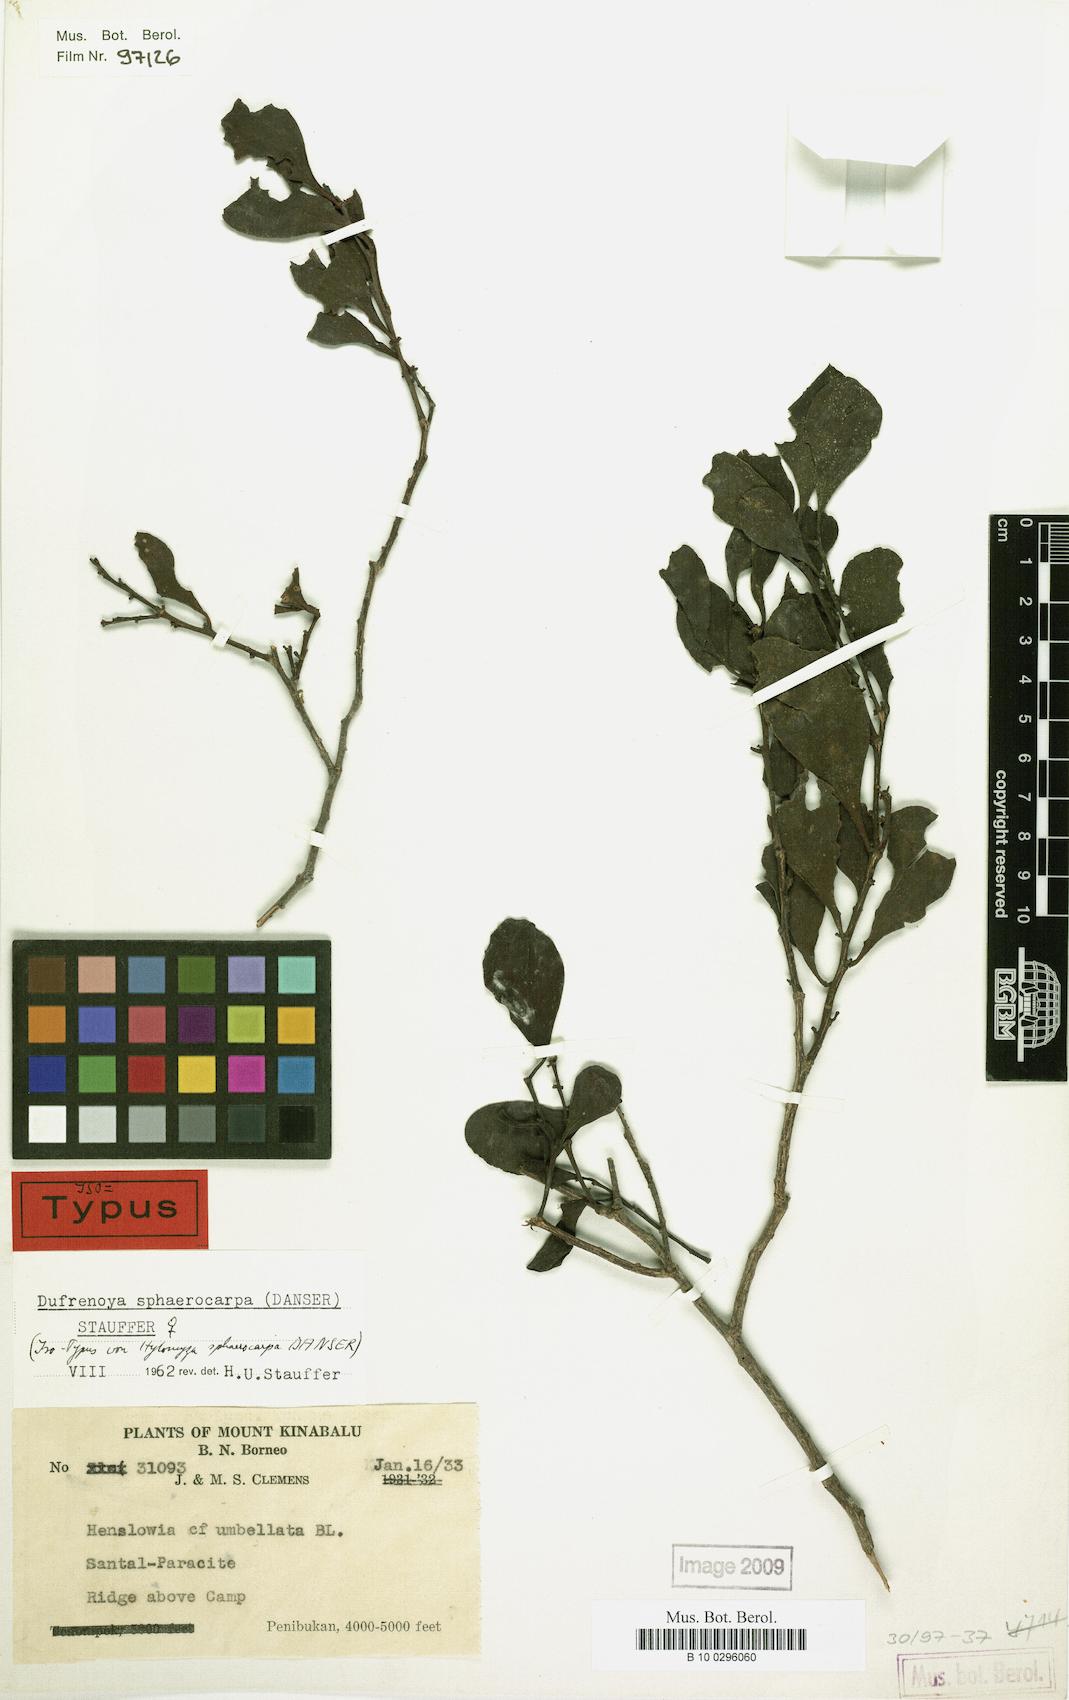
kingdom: Plantae
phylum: Tracheophyta
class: Magnoliopsida
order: Santalales
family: Amphorogynaceae
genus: Dufrenoya
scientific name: Dufrenoya sphaerocarpa
